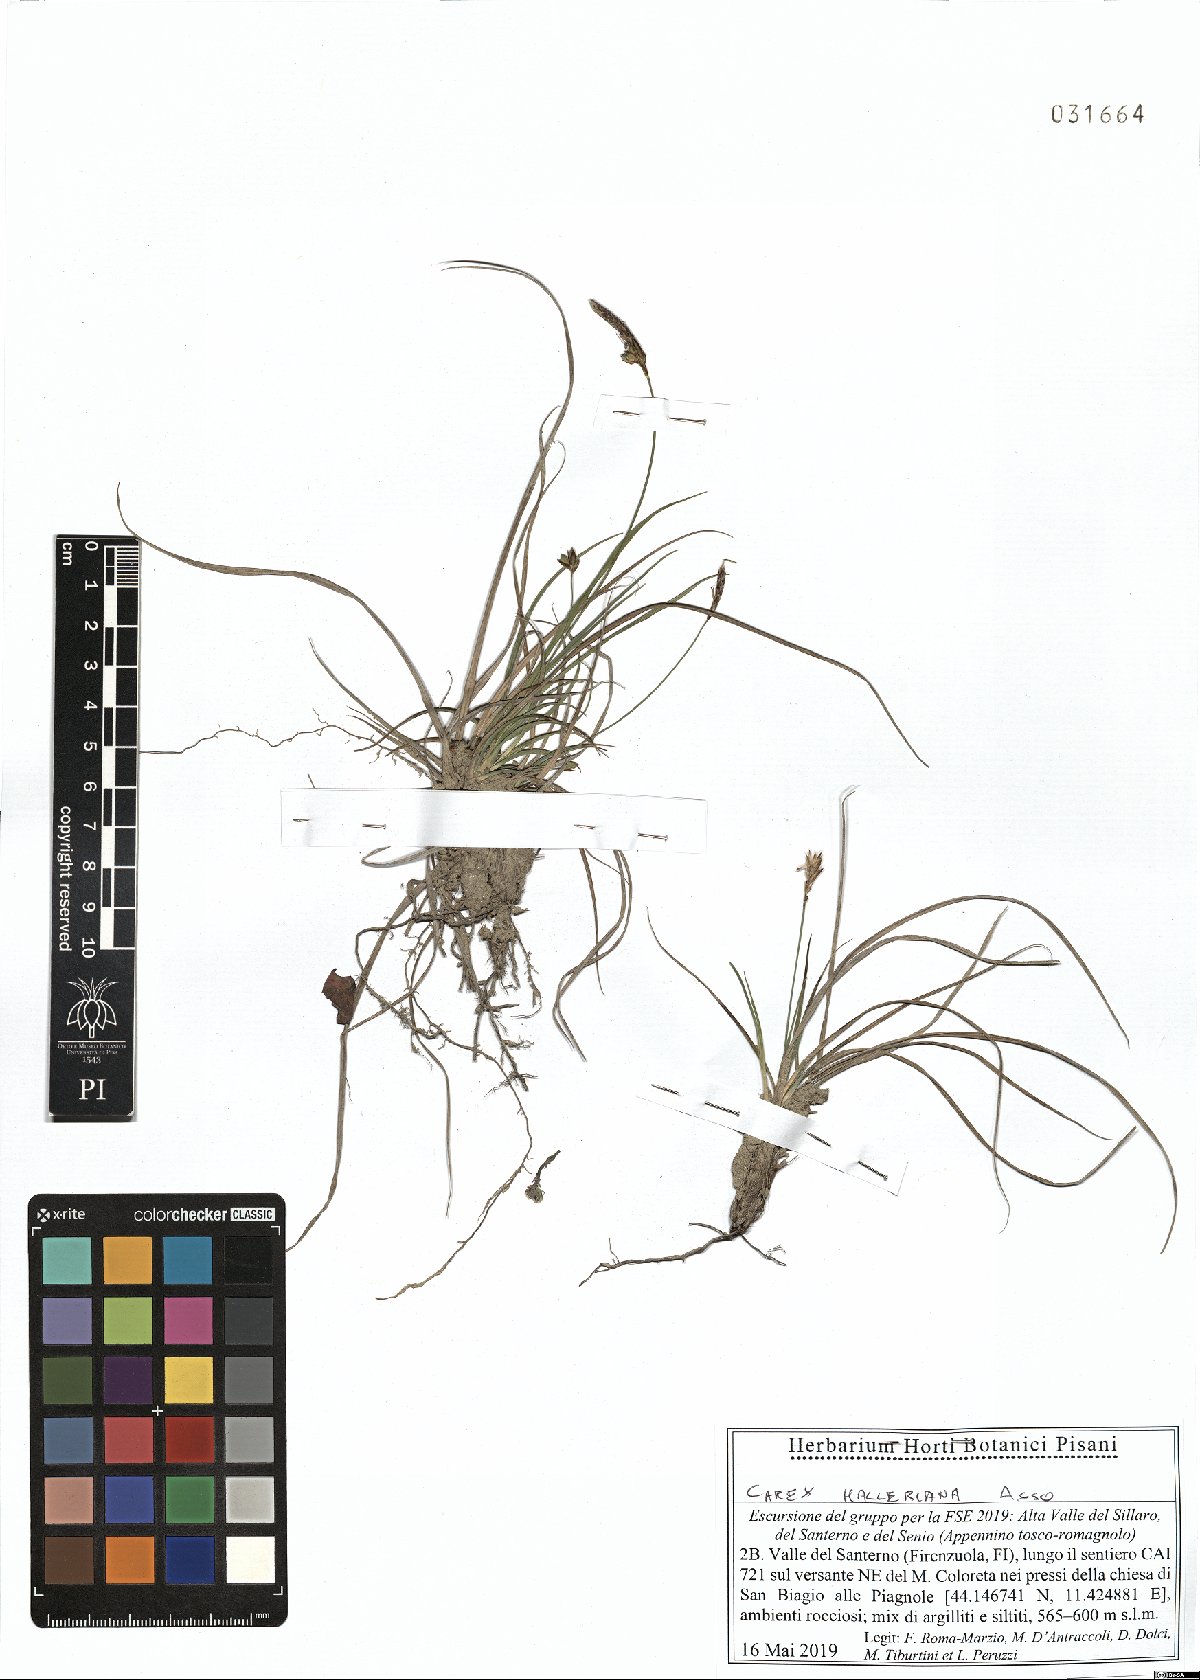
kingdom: Plantae
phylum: Tracheophyta
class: Liliopsida
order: Poales
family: Cyperaceae
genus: Carex
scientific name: Carex halleriana
